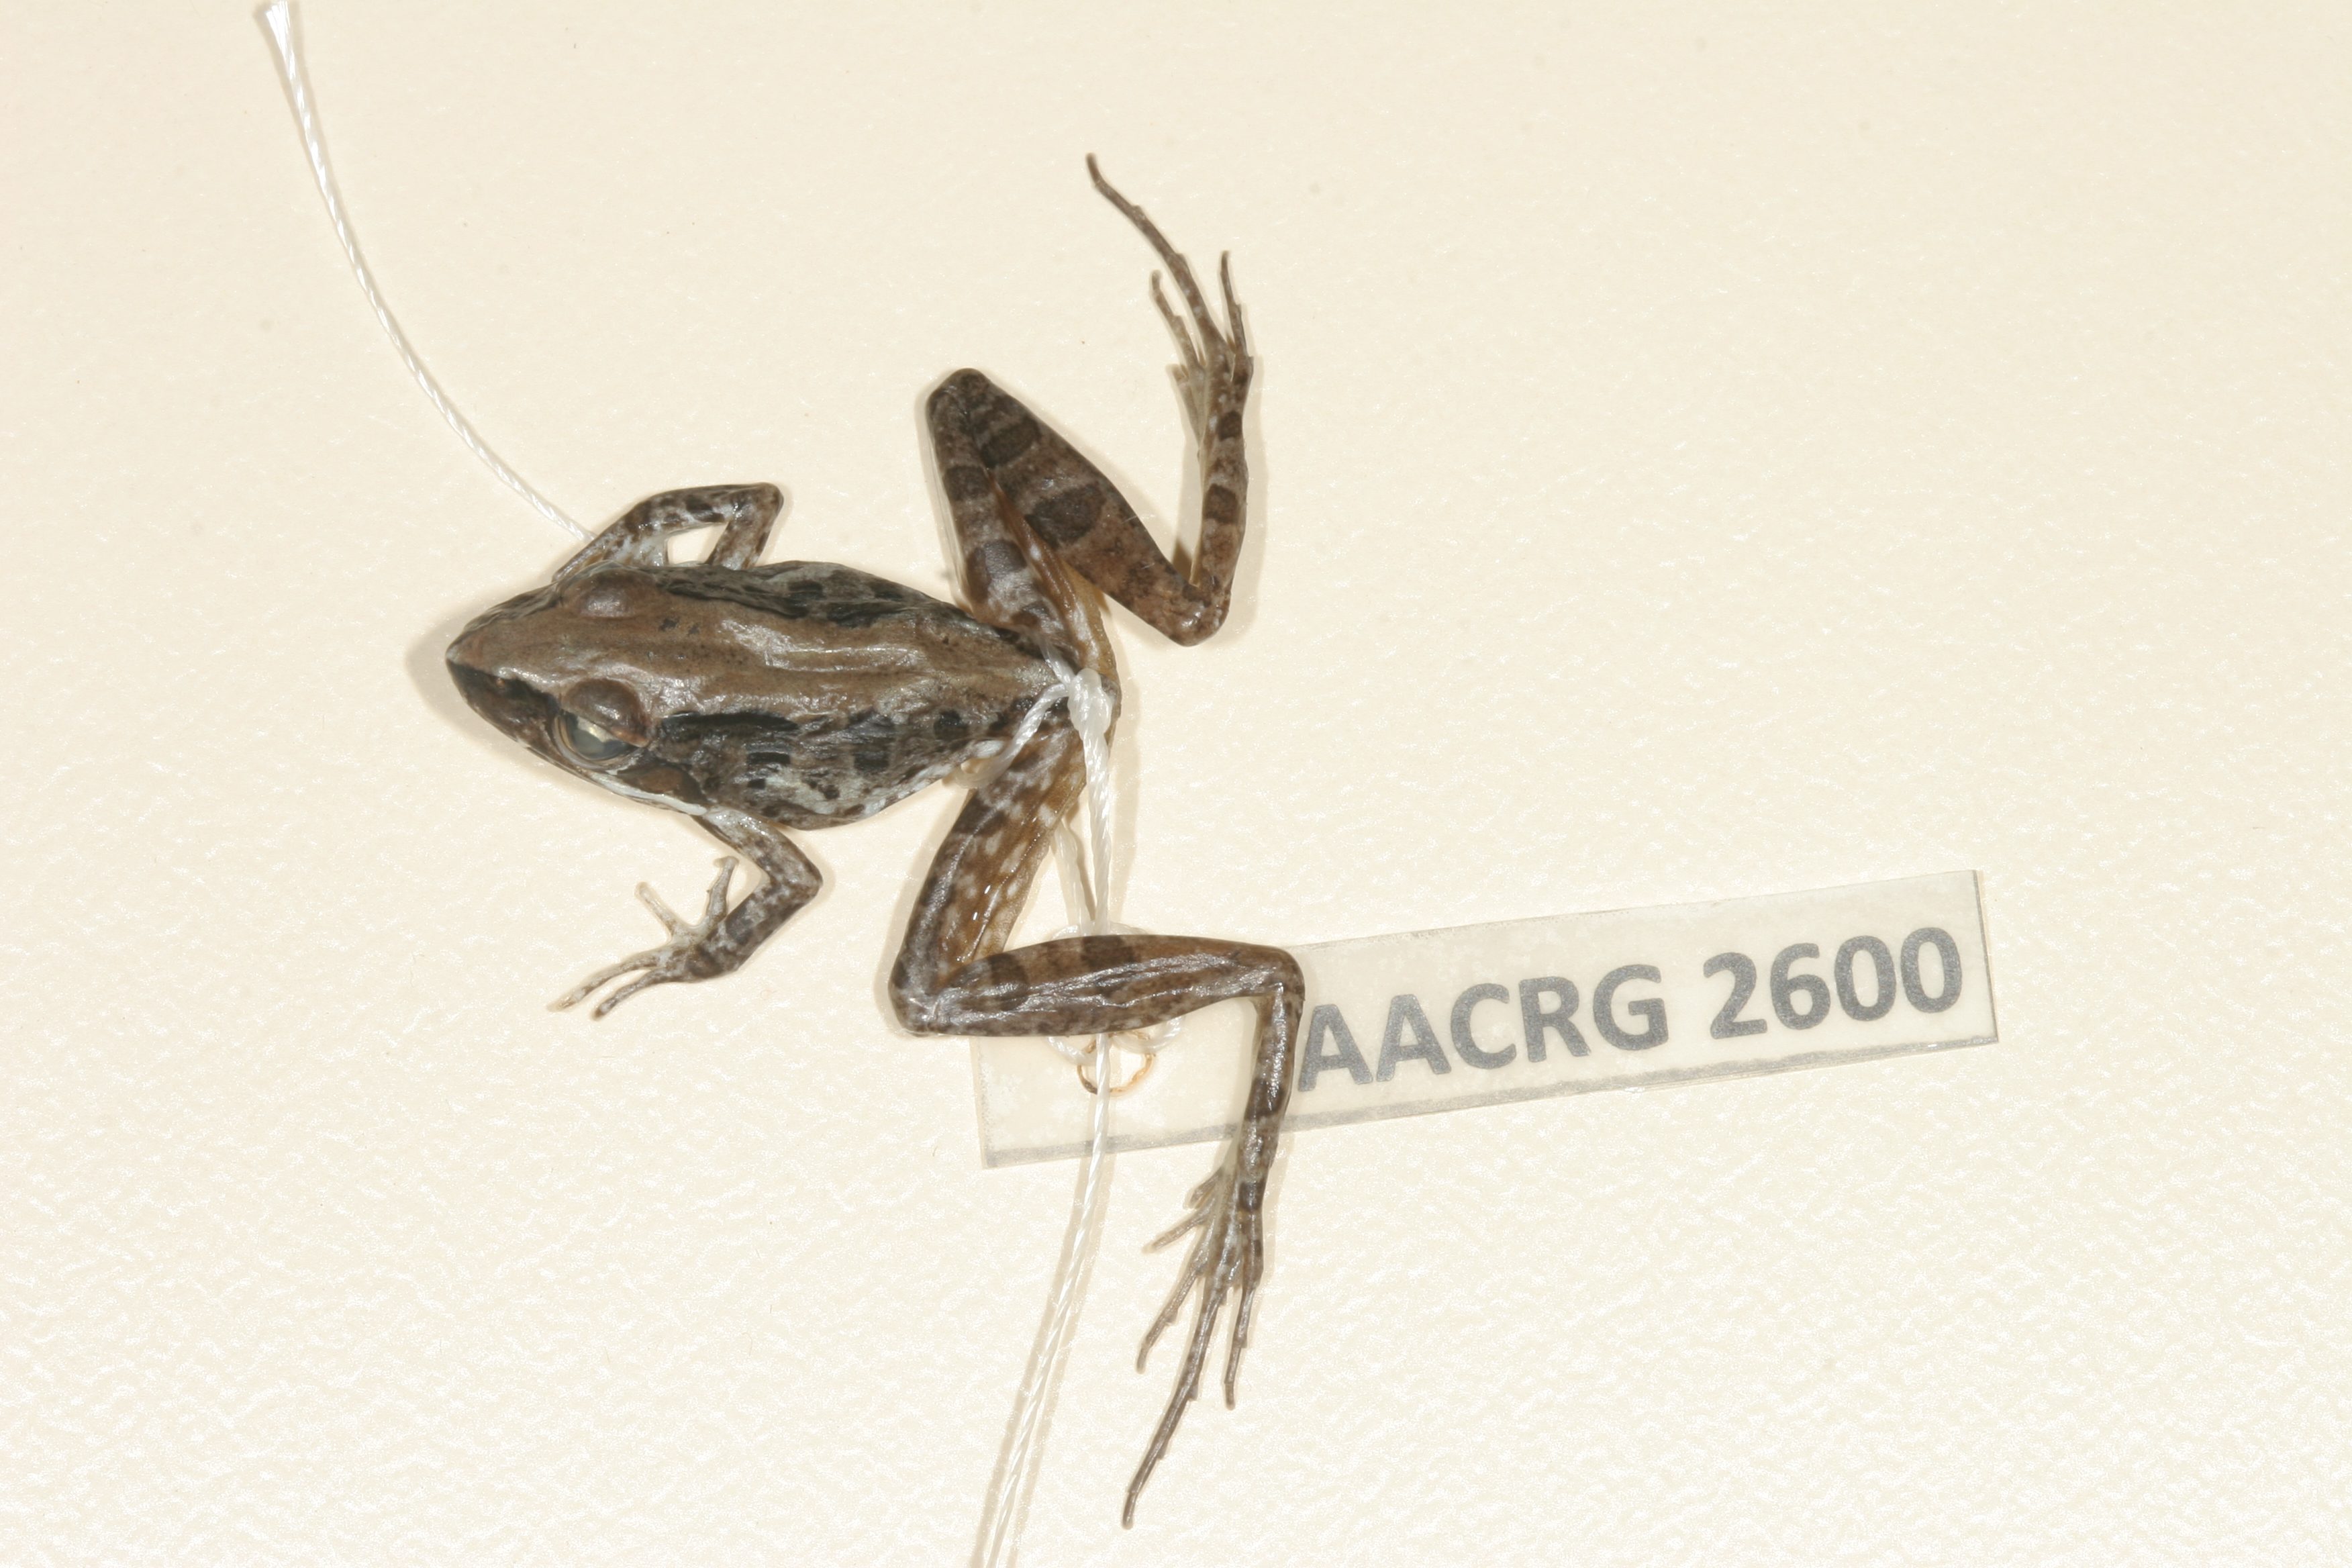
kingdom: Animalia
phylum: Chordata
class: Amphibia
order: Anura
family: Pyxicephalidae
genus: Strongylopus
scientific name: Strongylopus grayii
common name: Gray's stream frog
